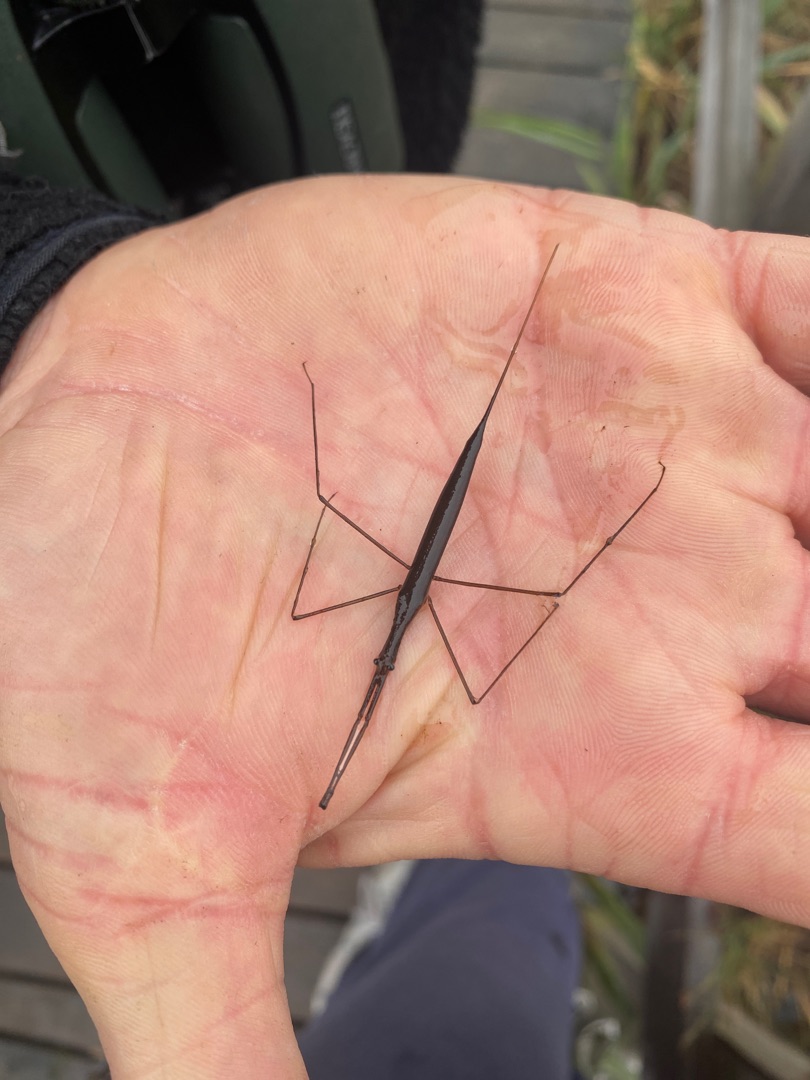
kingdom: Animalia
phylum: Arthropoda
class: Insecta
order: Hemiptera
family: Nepidae
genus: Ranatra
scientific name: Ranatra linearis
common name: Stavtæge
